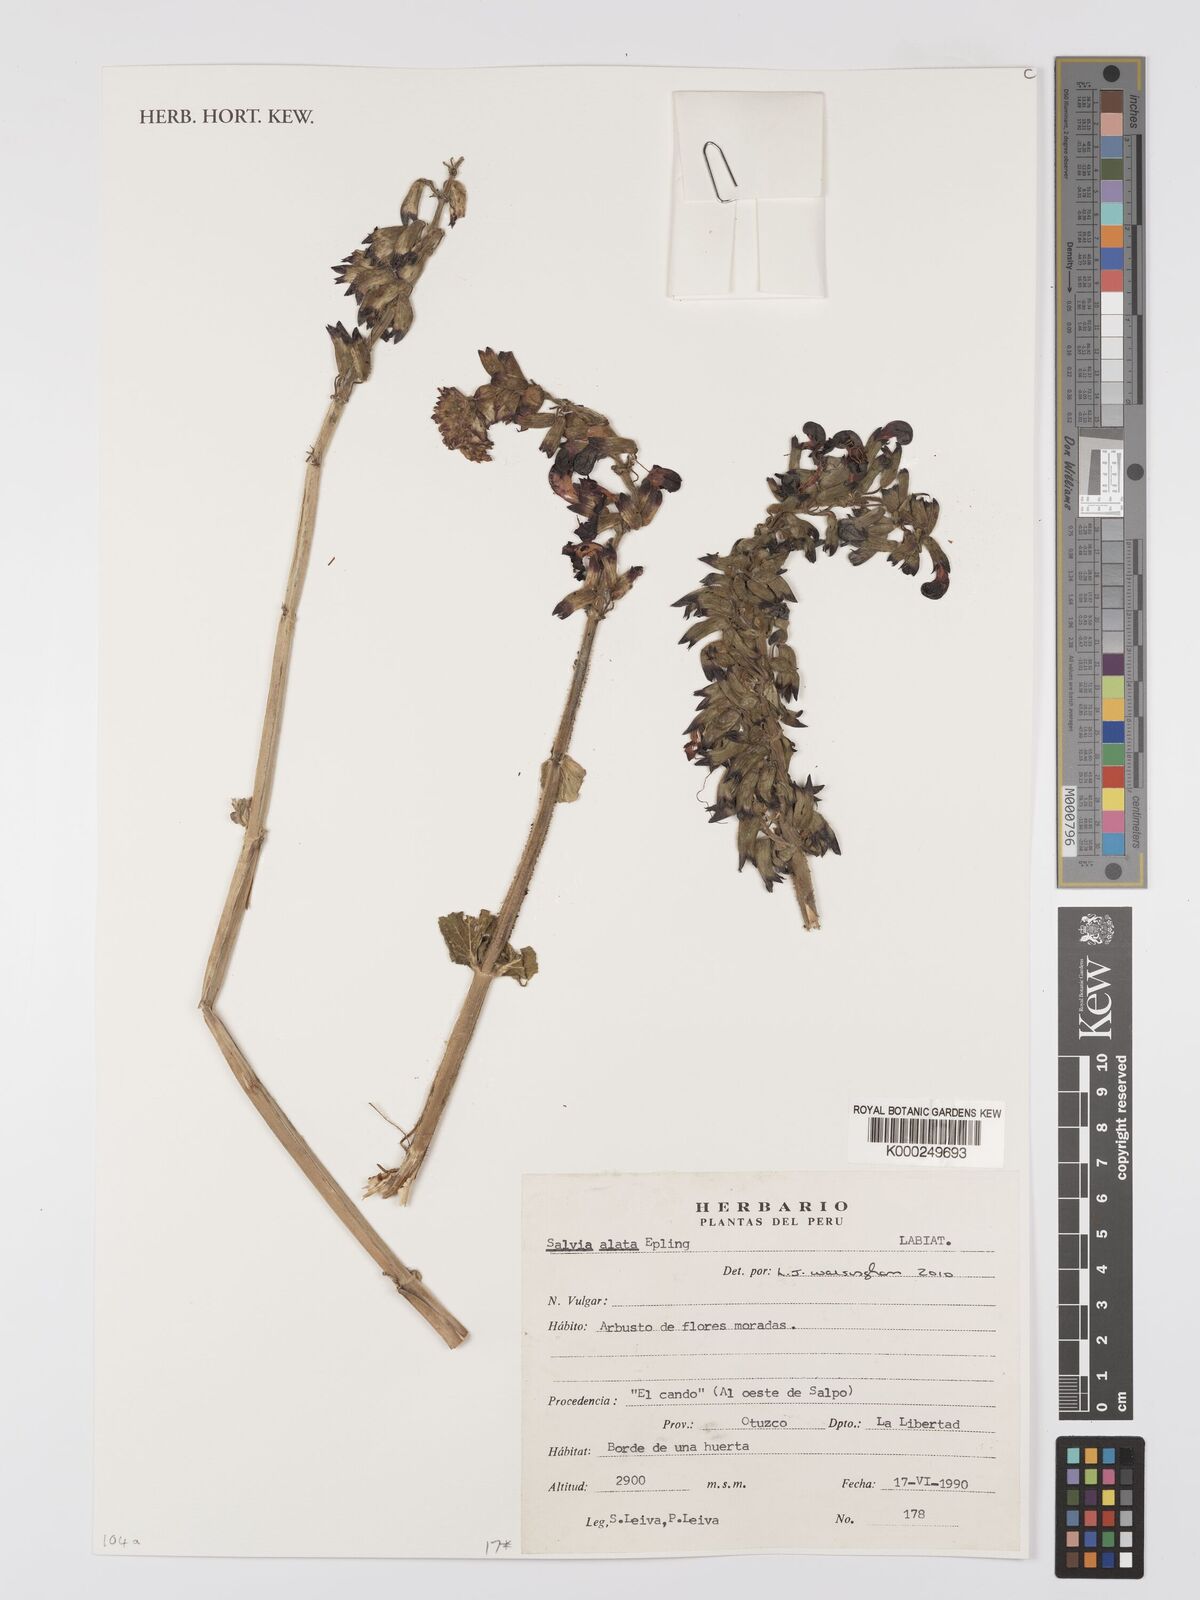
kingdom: Plantae
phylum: Tracheophyta
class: Magnoliopsida
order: Lamiales
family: Lamiaceae
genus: Salvia
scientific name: Salvia alata
